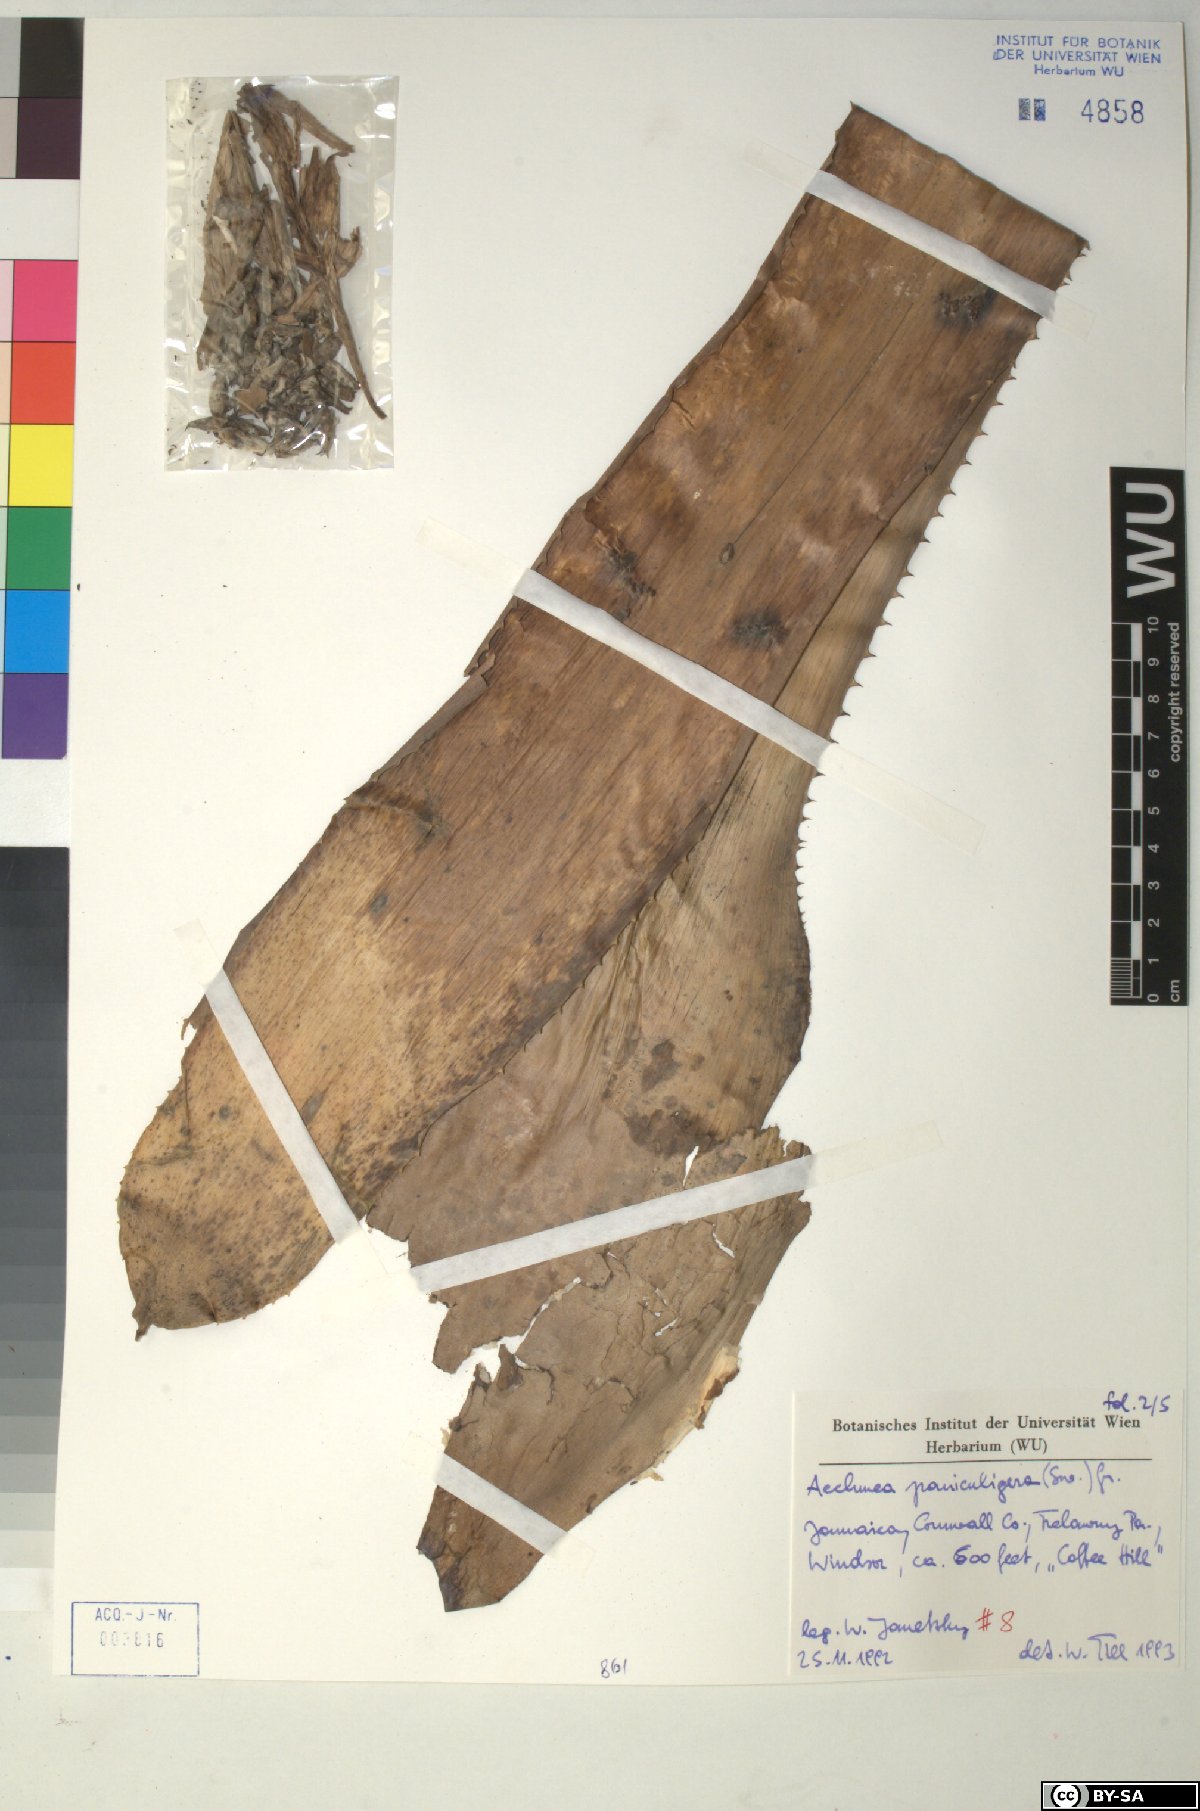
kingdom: Plantae
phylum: Tracheophyta
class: Liliopsida
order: Poales
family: Bromeliaceae
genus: Aechmea
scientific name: Aechmea paniculigera
